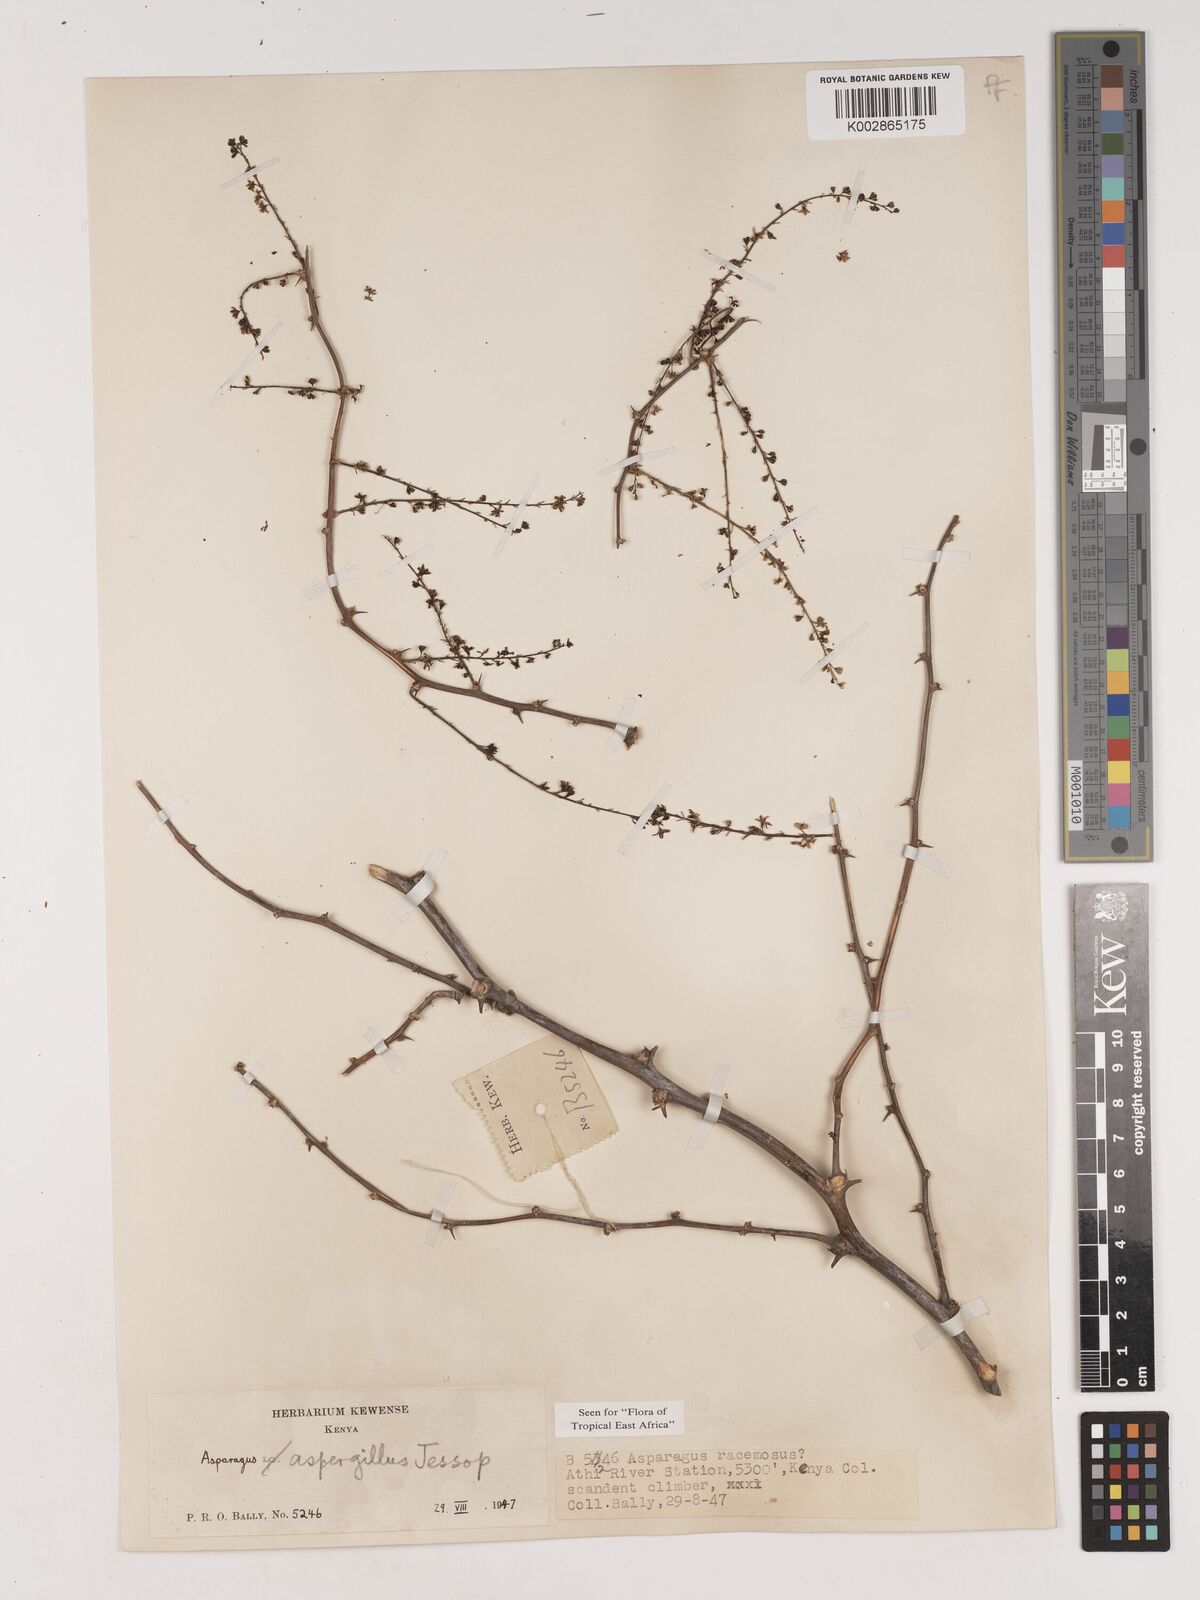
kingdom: Plantae
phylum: Tracheophyta
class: Liliopsida
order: Asparagales
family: Asparagaceae
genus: Asparagus
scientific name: Asparagus aspergillus
